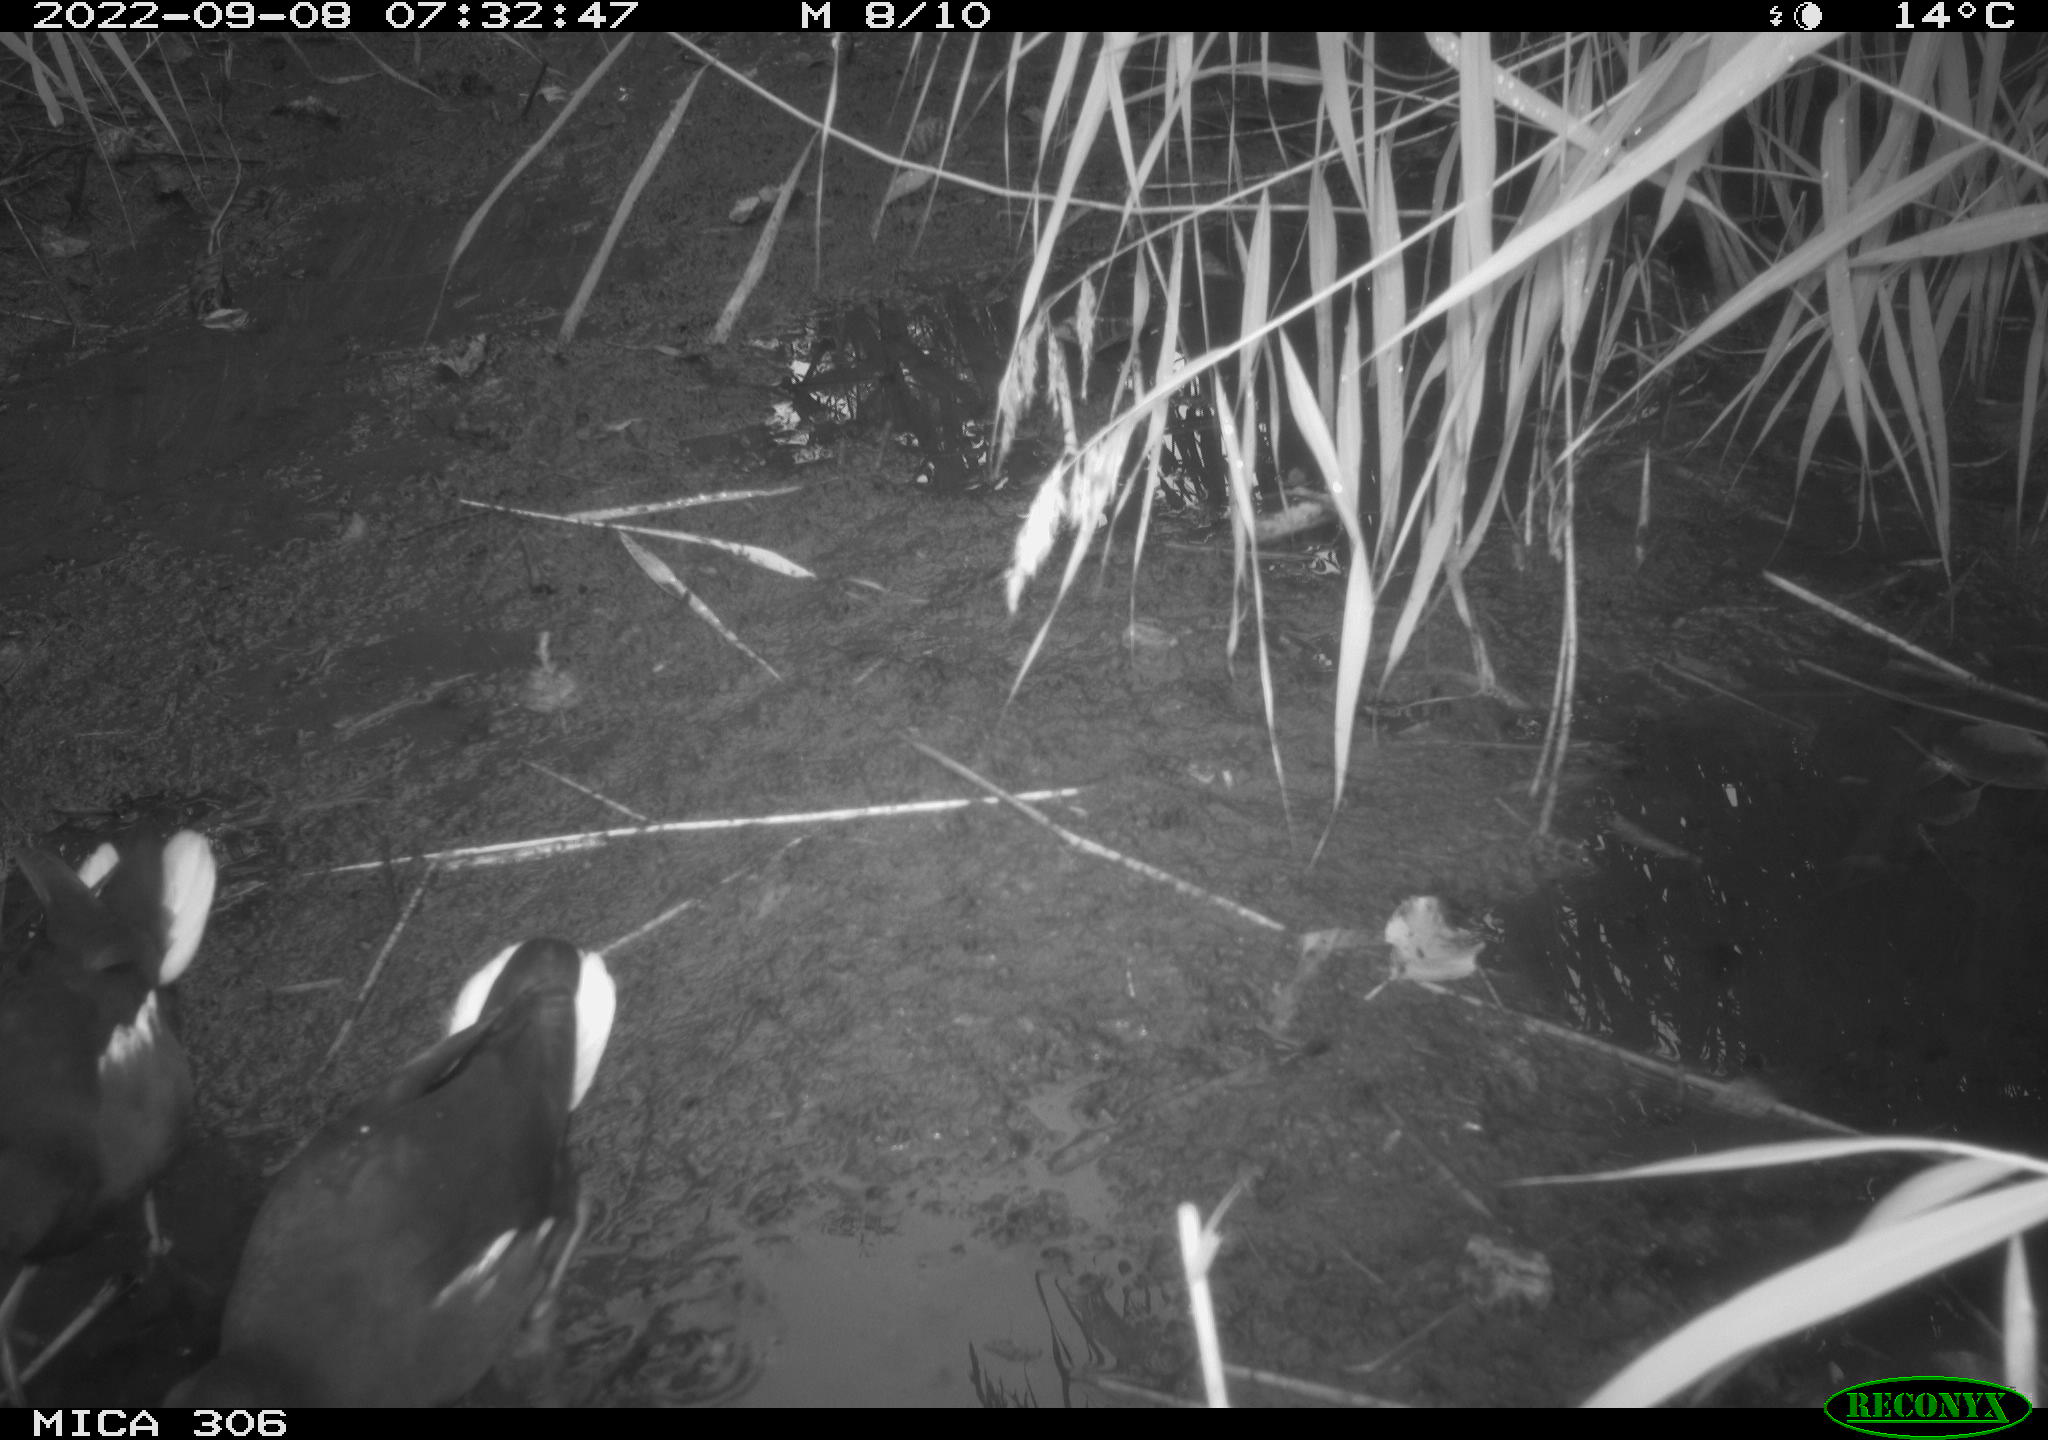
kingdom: Animalia
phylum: Chordata
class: Aves
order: Gruiformes
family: Rallidae
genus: Fulica
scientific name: Fulica atra
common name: Eurasian coot
